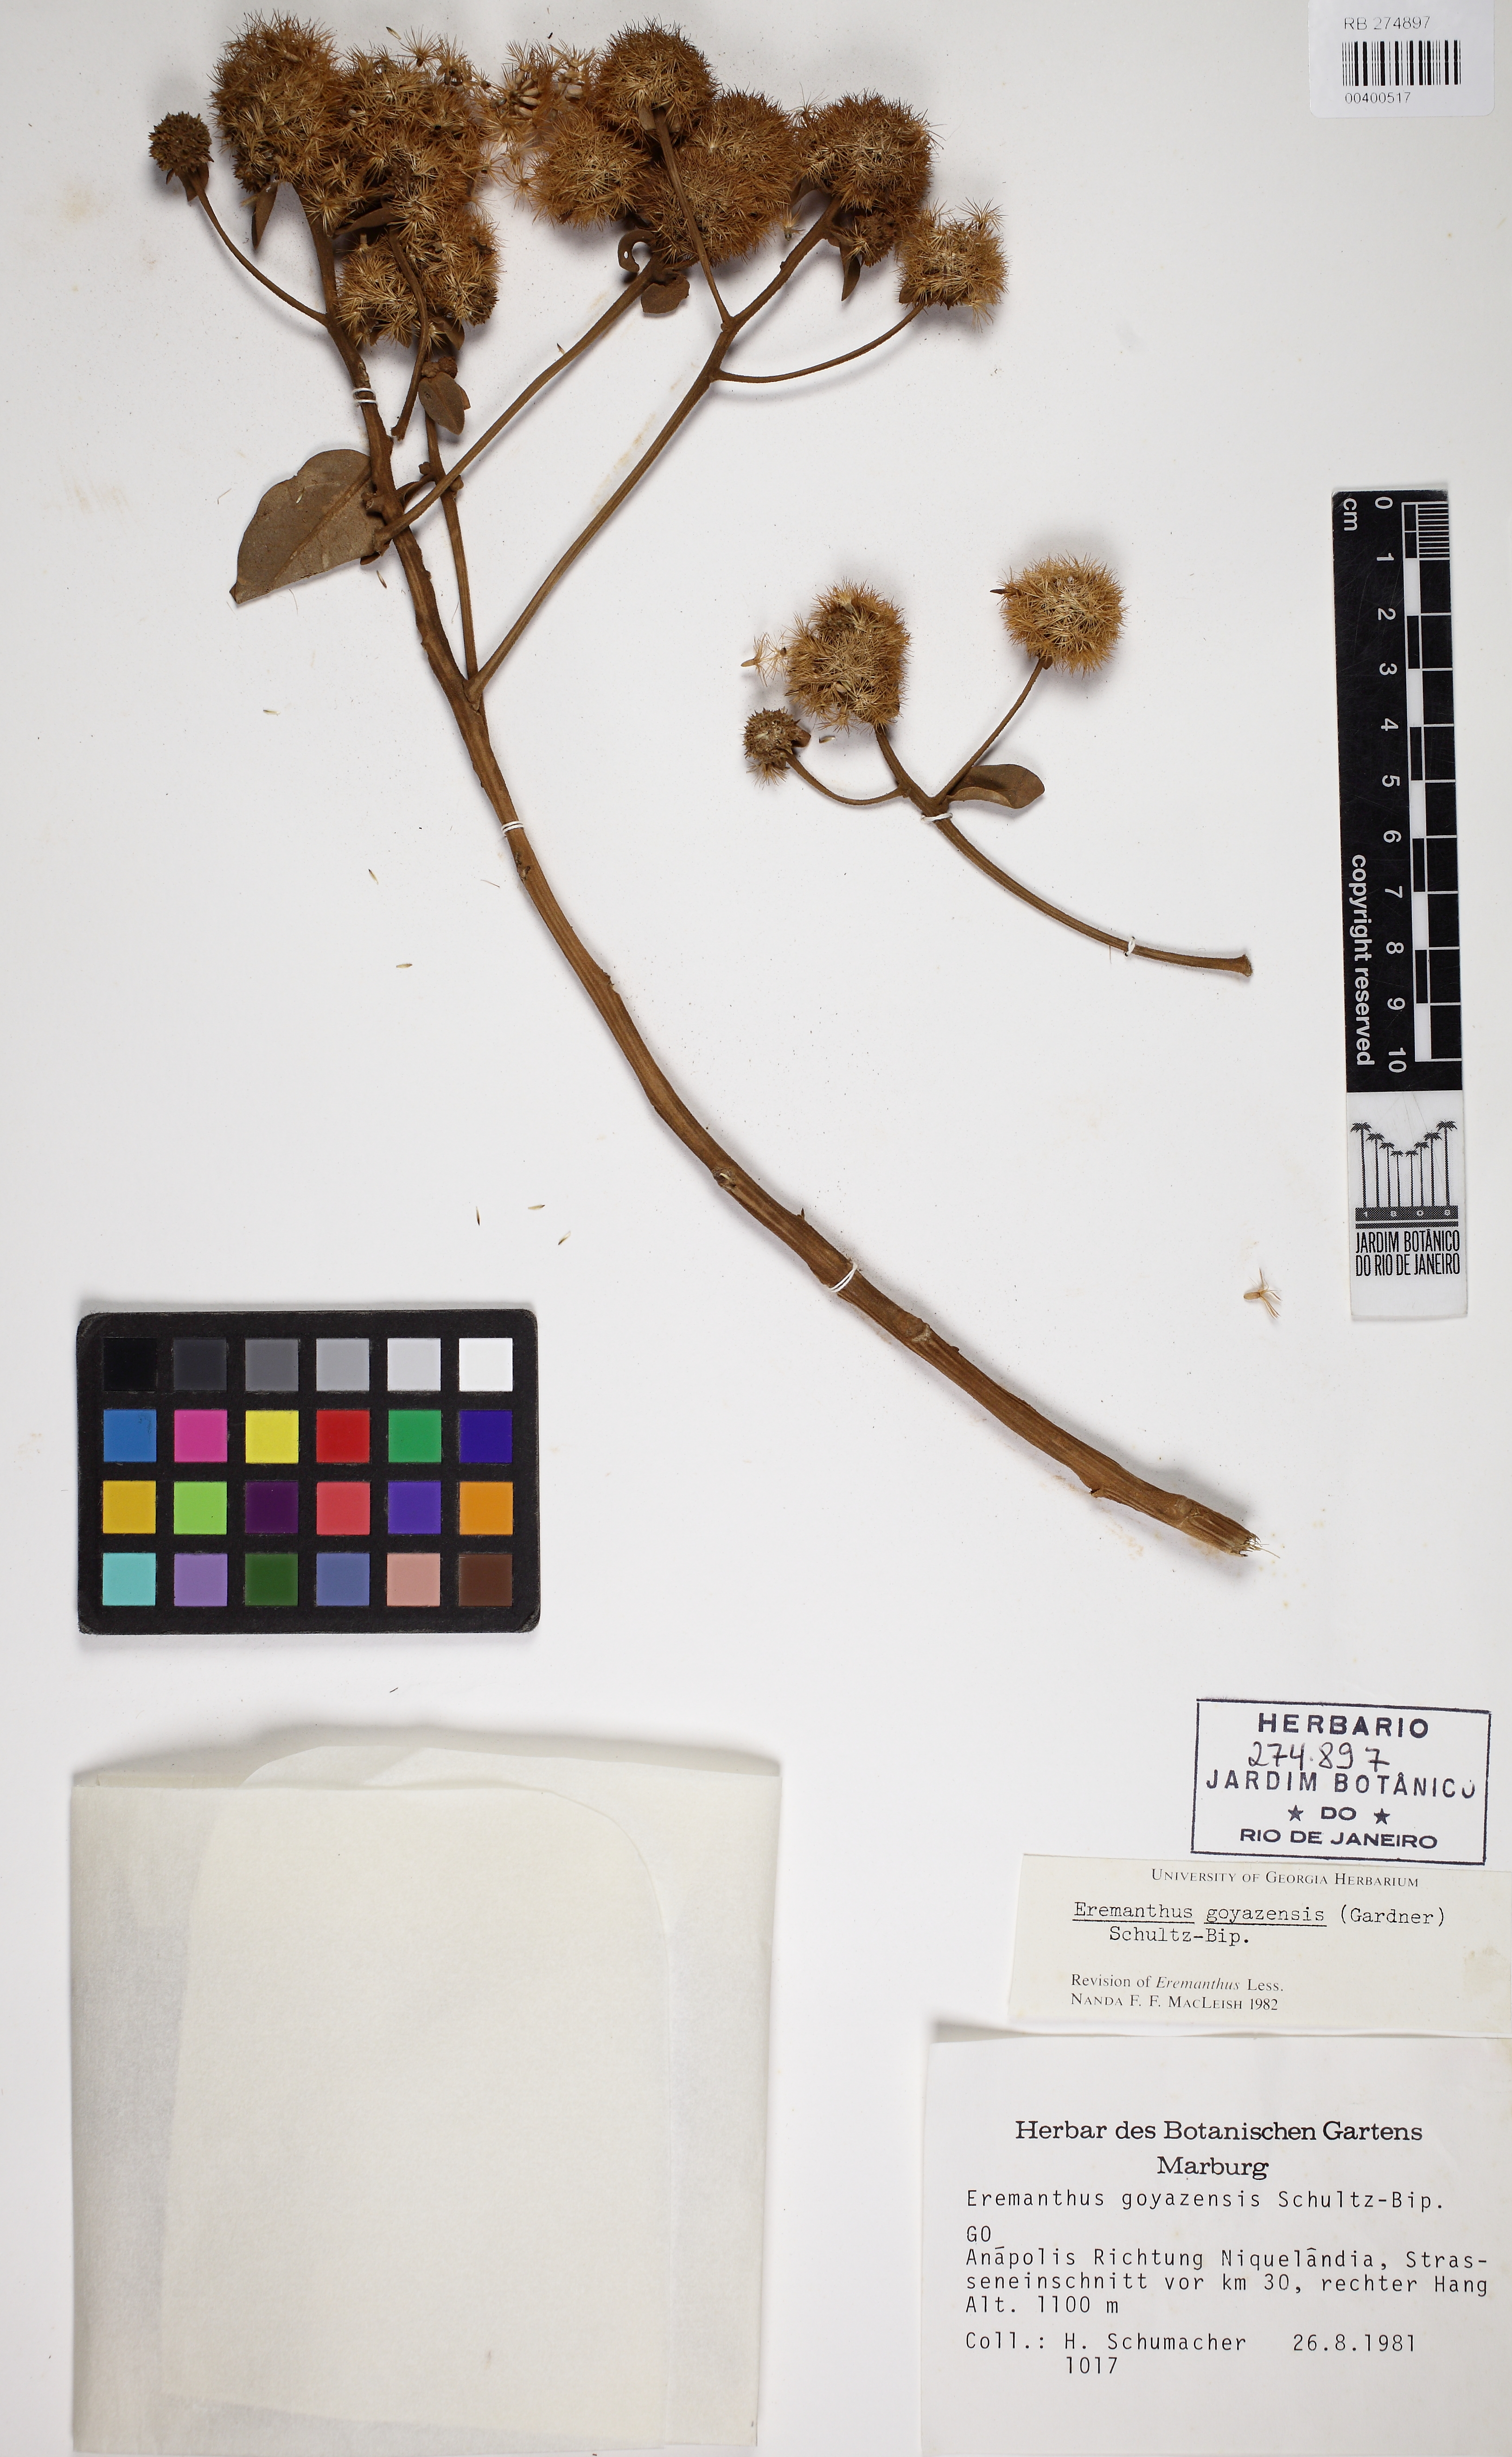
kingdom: Plantae
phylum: Tracheophyta
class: Magnoliopsida
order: Asterales
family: Asteraceae
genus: Eremanthus
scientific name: Eremanthus goyazensis
